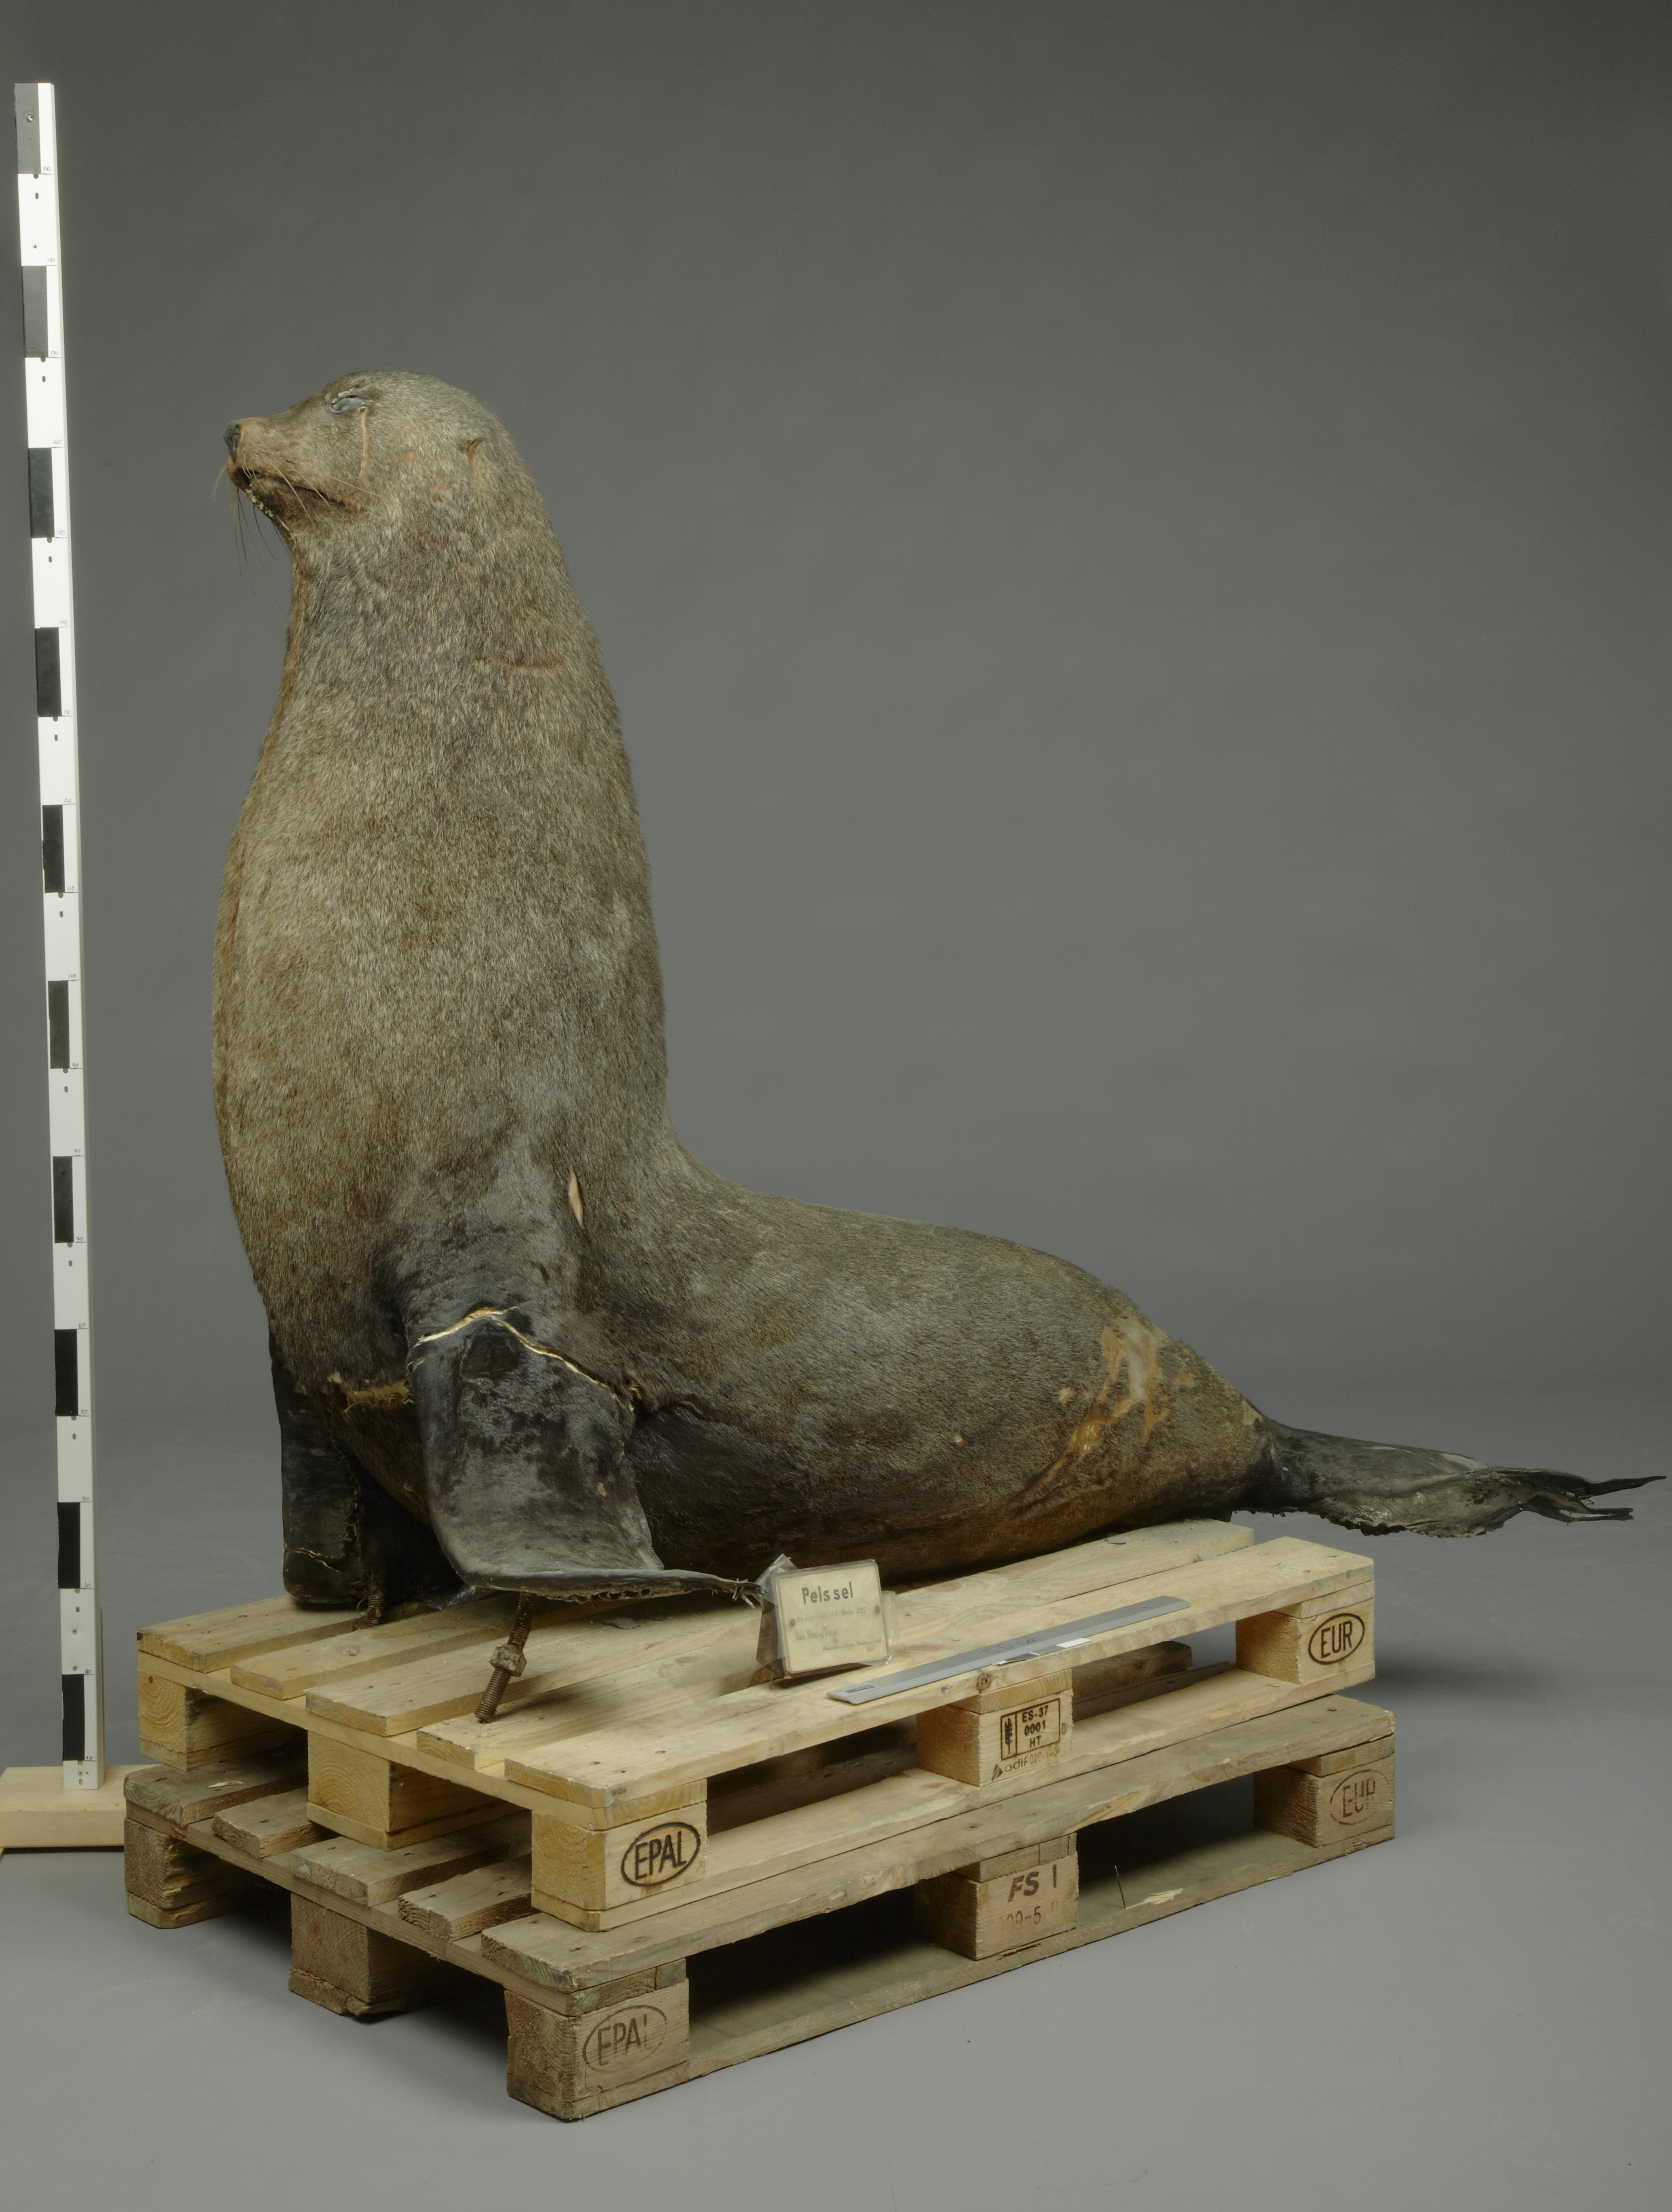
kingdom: Animalia
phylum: Chordata
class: Mammalia
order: Carnivora
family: Otariidae
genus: Arctocephalus
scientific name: Arctocephalus pusillus
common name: Brown fur seal
